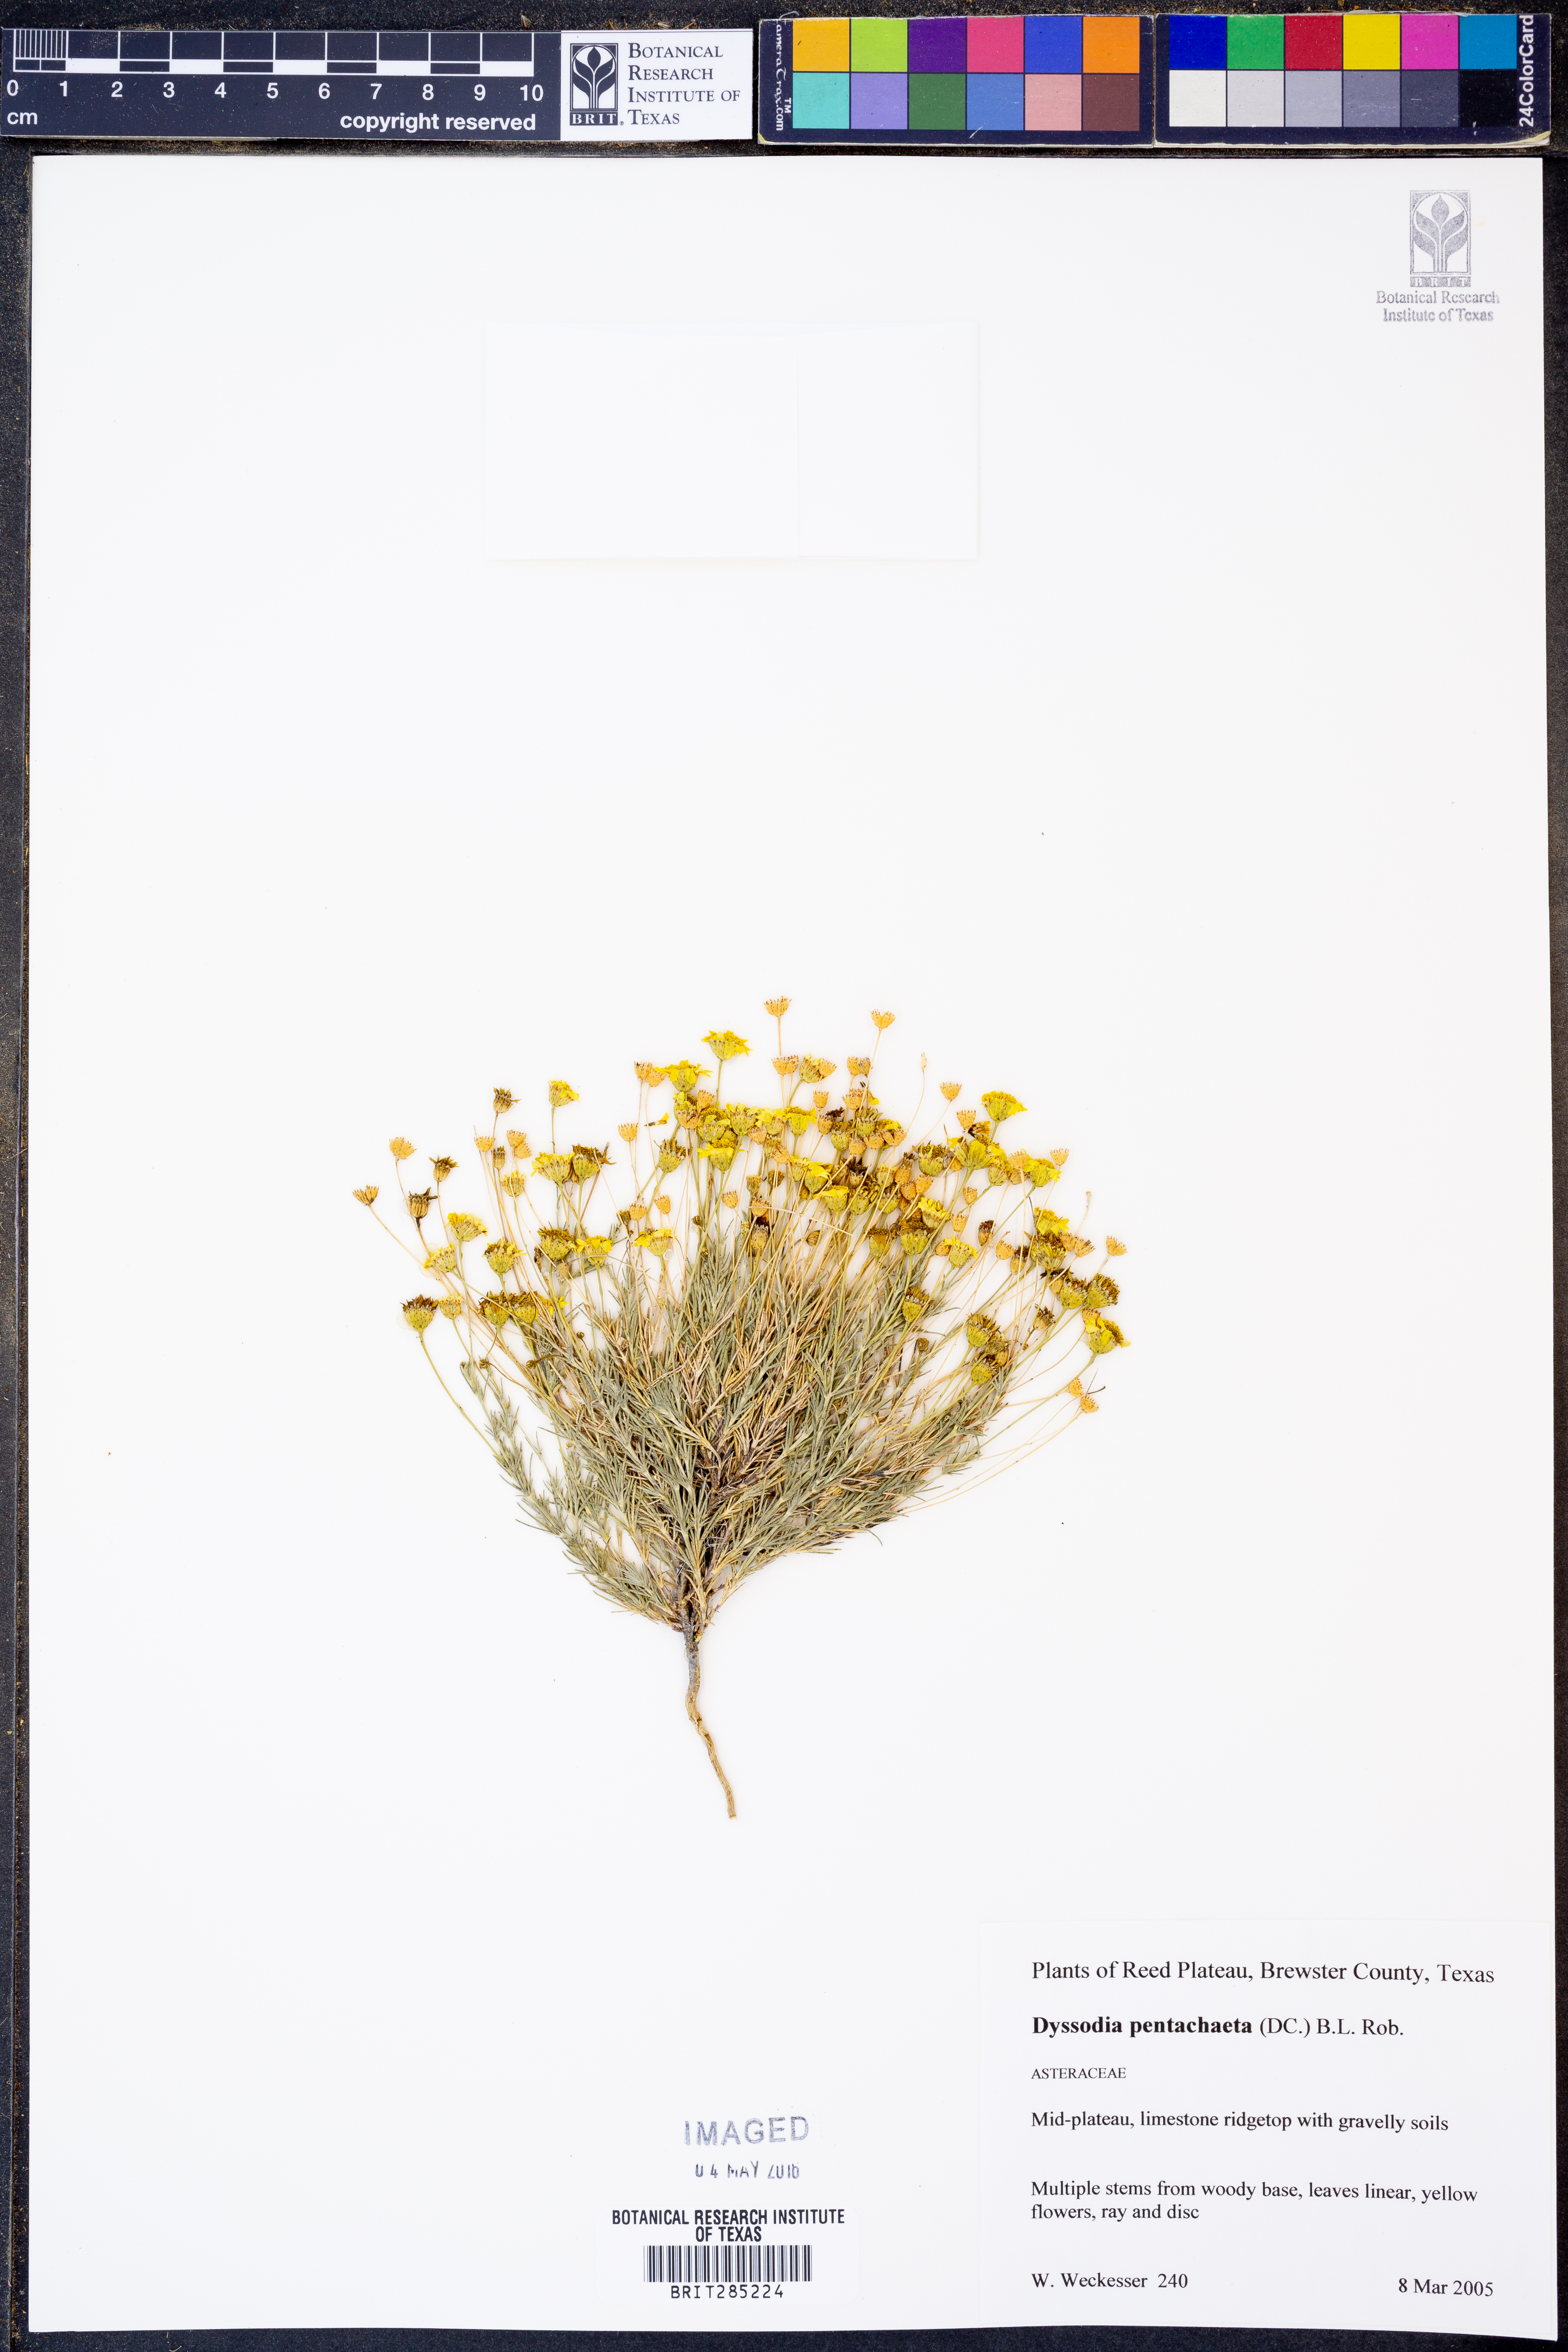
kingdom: Plantae
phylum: Tracheophyta
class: Magnoliopsida
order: Asterales
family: Asteraceae
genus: Thymophylla
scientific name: Thymophylla pentachaeta
